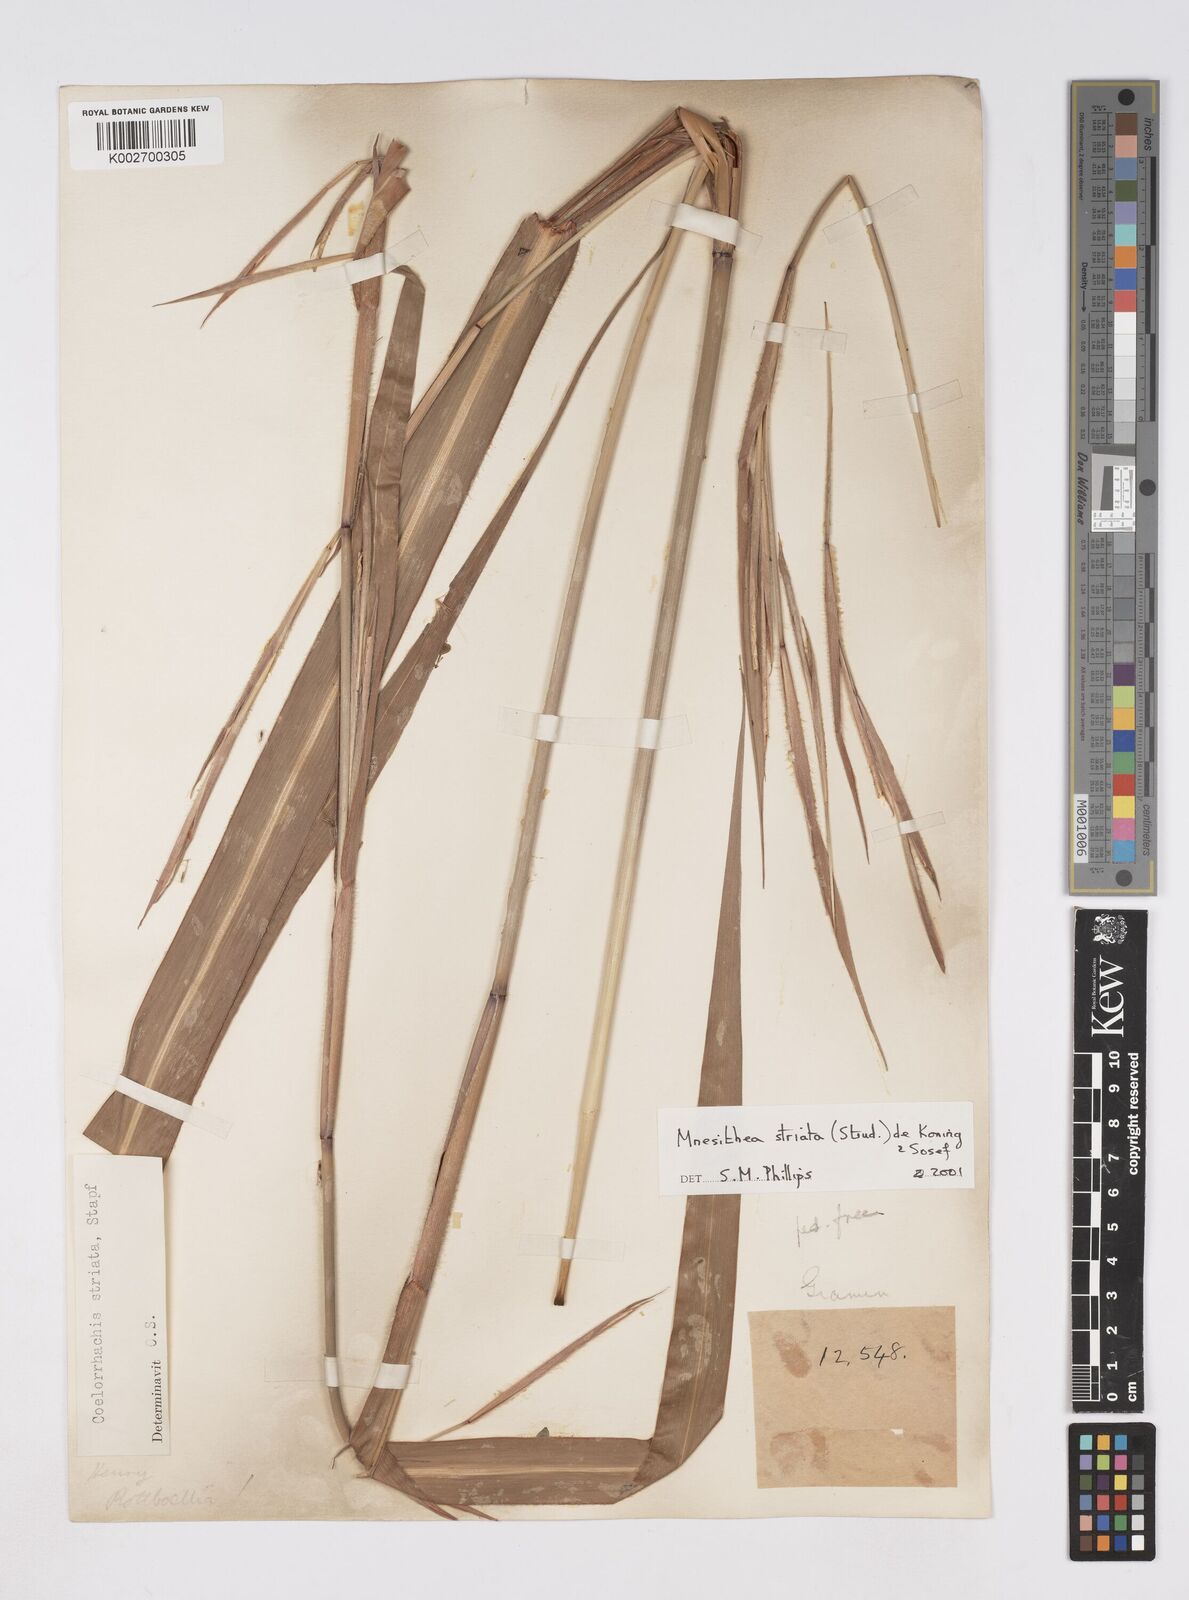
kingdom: Plantae
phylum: Tracheophyta
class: Liliopsida
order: Poales
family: Poaceae
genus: Rottboellia
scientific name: Rottboellia striata
